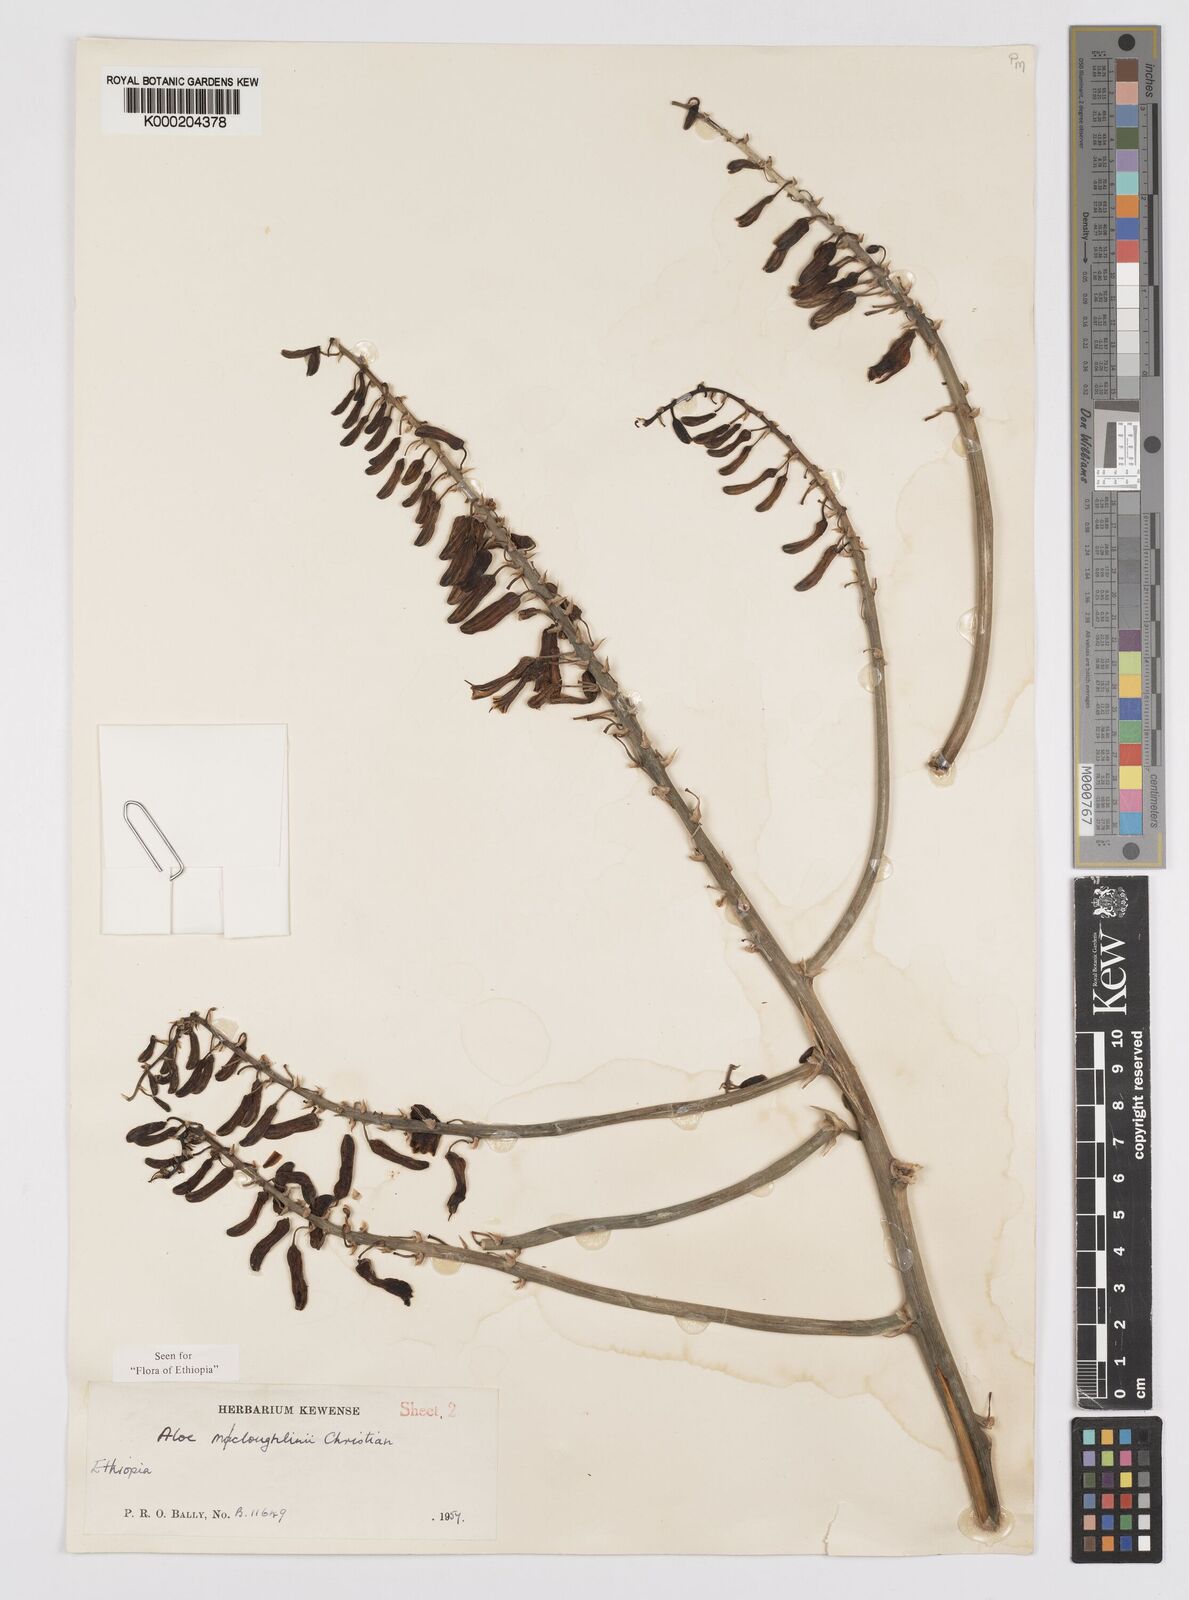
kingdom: Plantae
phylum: Tracheophyta
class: Liliopsida
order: Asparagales
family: Asphodelaceae
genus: Aloe
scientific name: Aloe
